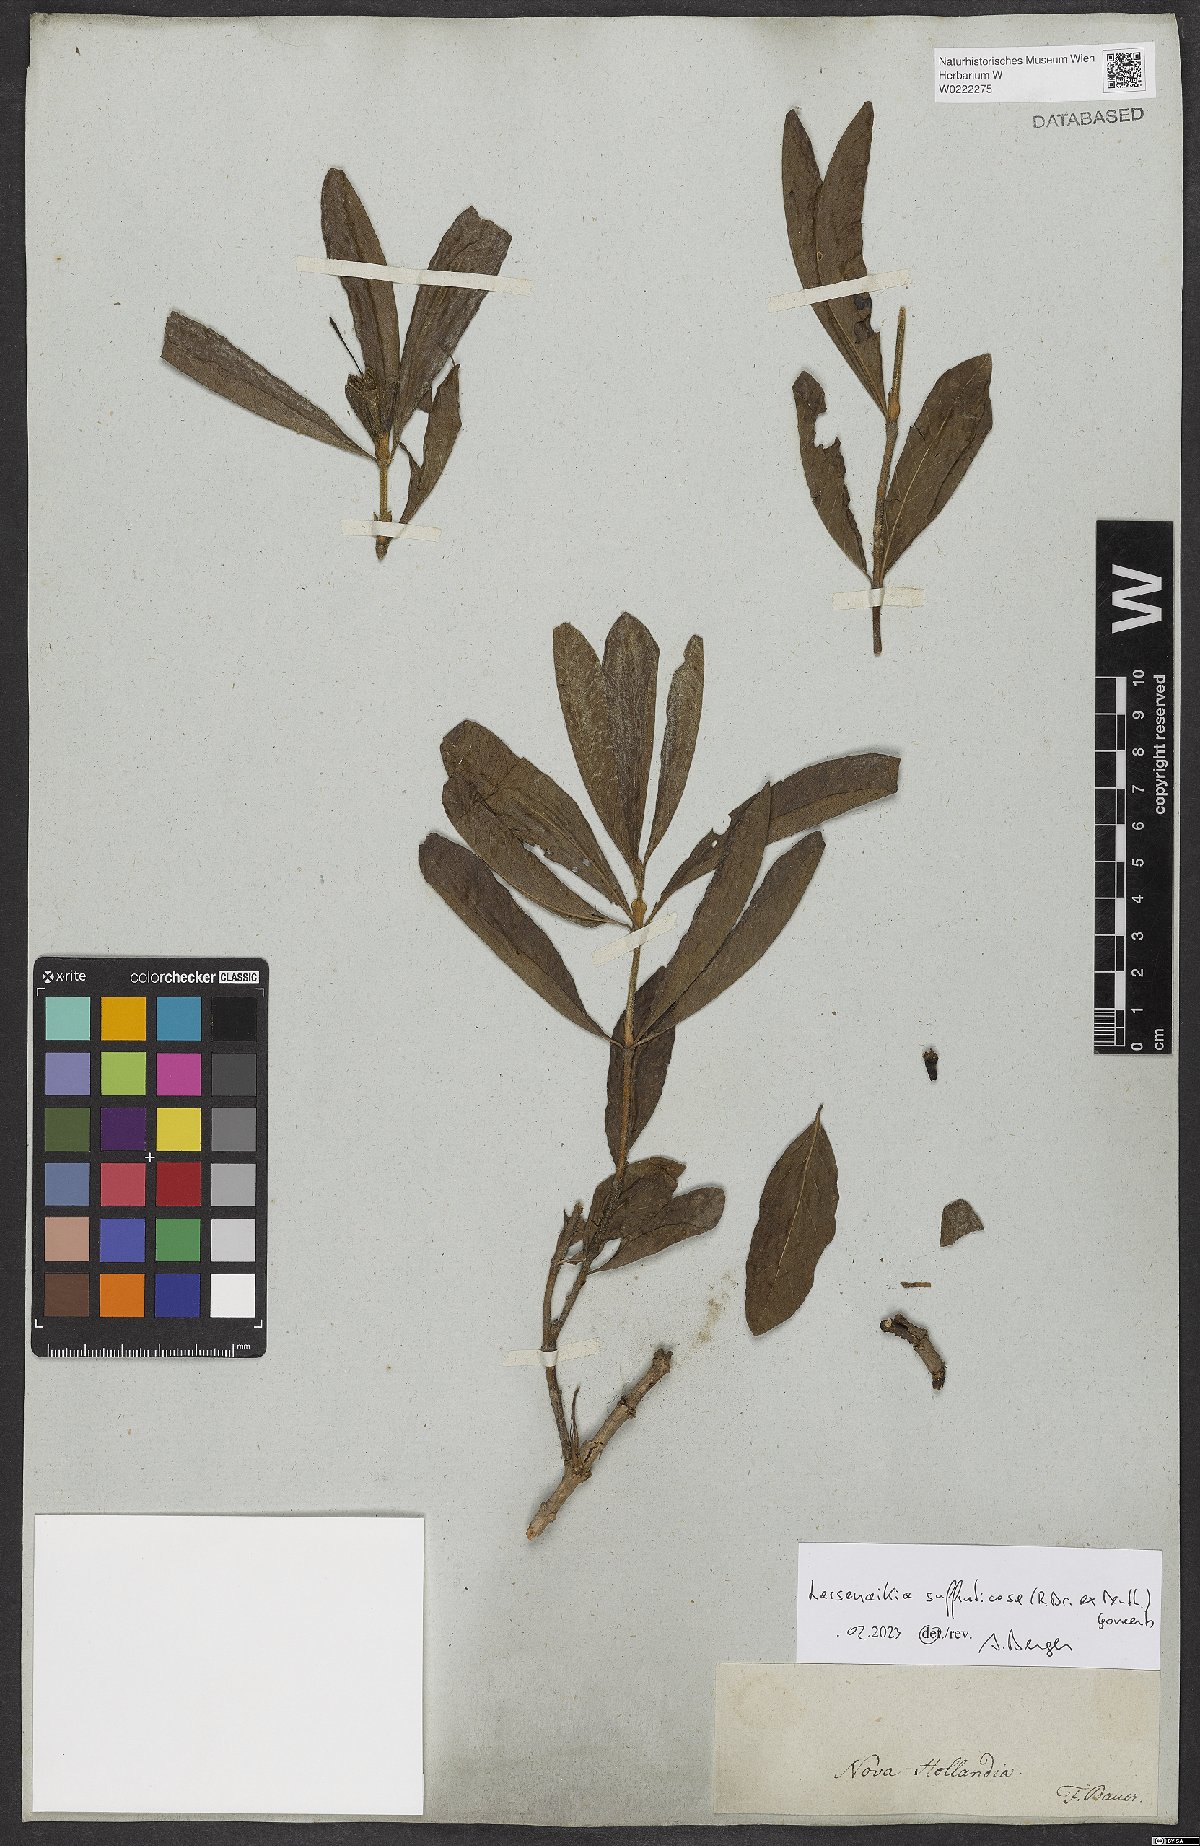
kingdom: Plantae
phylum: Tracheophyta
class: Magnoliopsida
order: Gentianales
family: Rubiaceae
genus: Larsenaikia
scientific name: Larsenaikia suffruticosa
